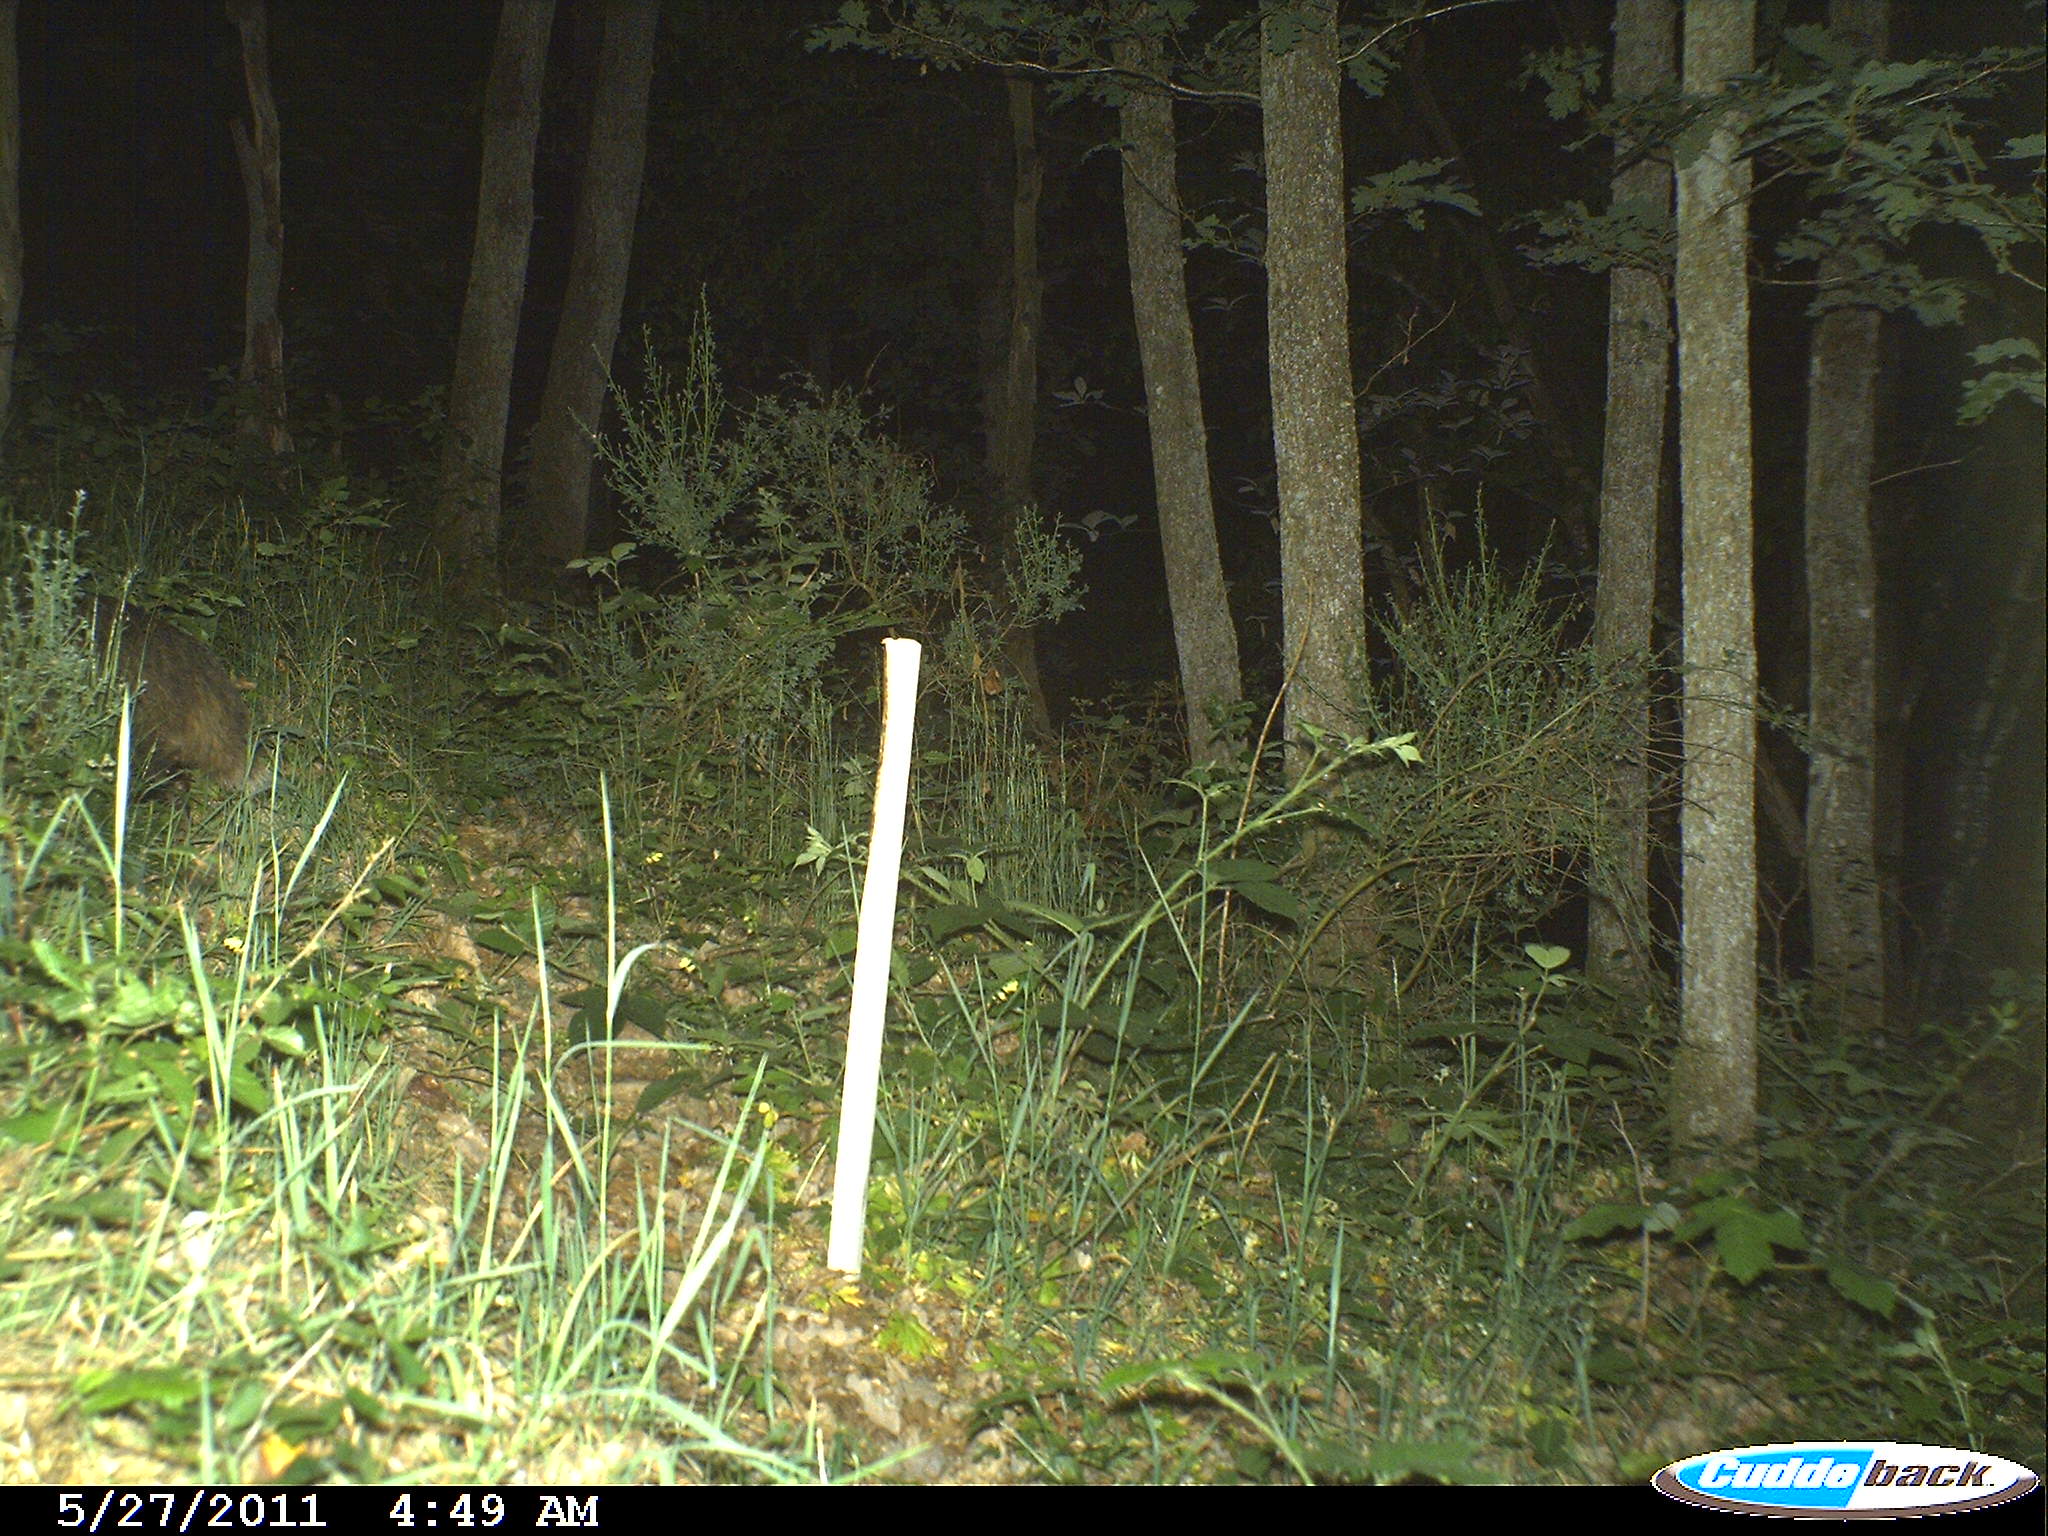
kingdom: Animalia
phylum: Chordata
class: Mammalia
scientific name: Mammalia
